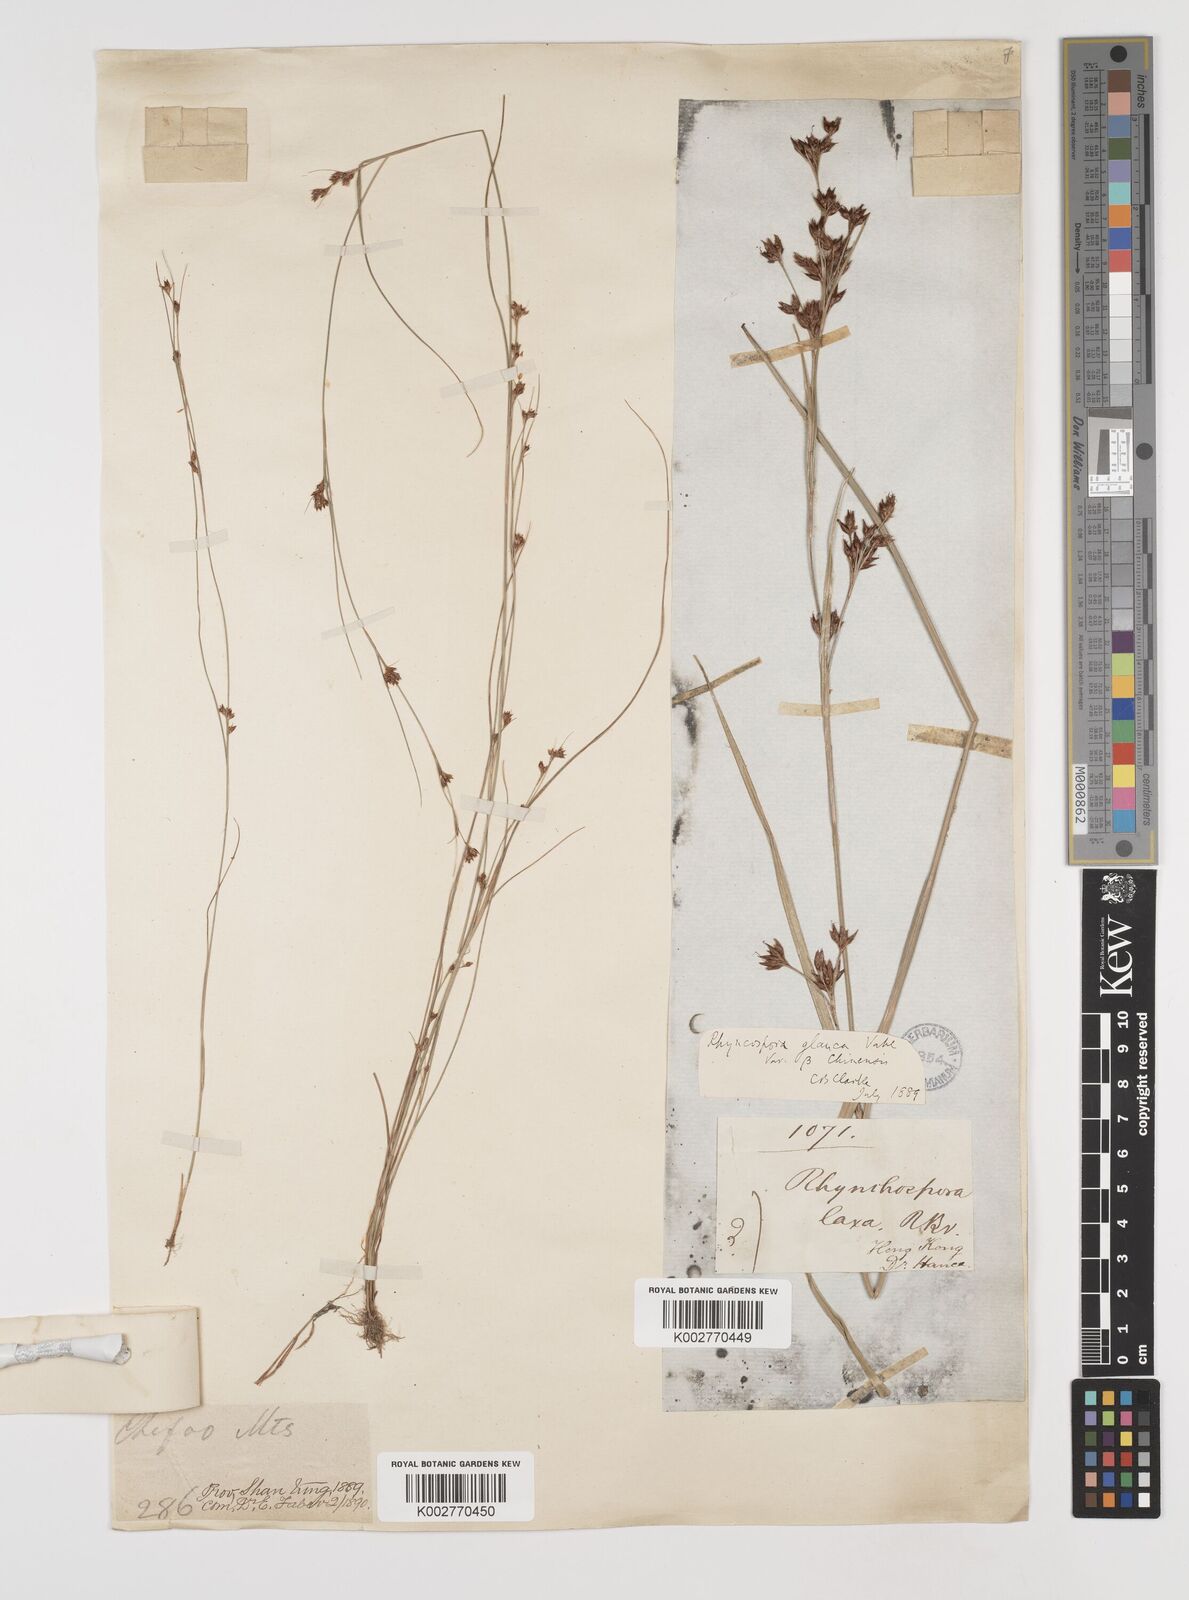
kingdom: Plantae
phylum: Tracheophyta
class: Liliopsida
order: Poales
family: Cyperaceae
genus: Rhynchospora
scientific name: Rhynchospora
